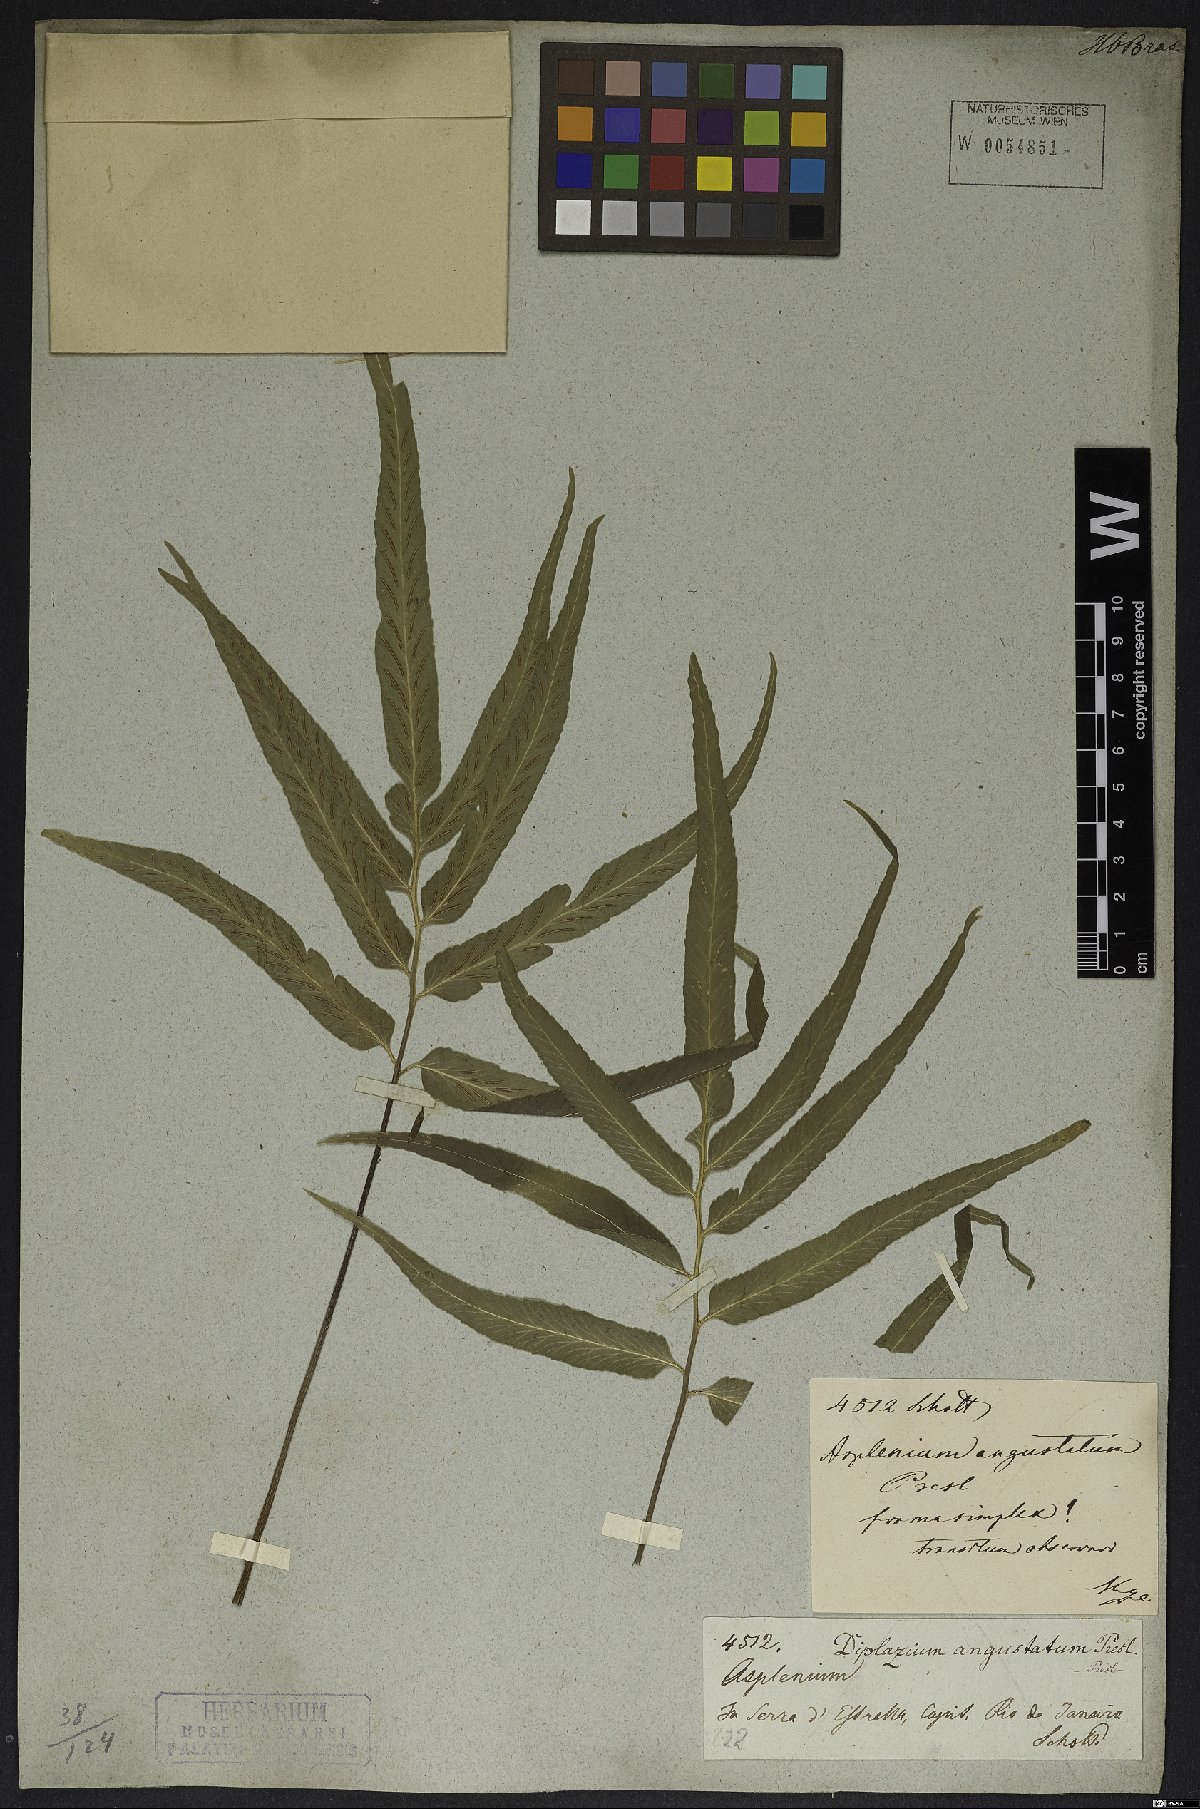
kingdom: Plantae
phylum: Tracheophyta
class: Polypodiopsida
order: Polypodiales
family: Aspleniaceae
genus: Asplenium
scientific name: Asplenium austrobrasiliense
